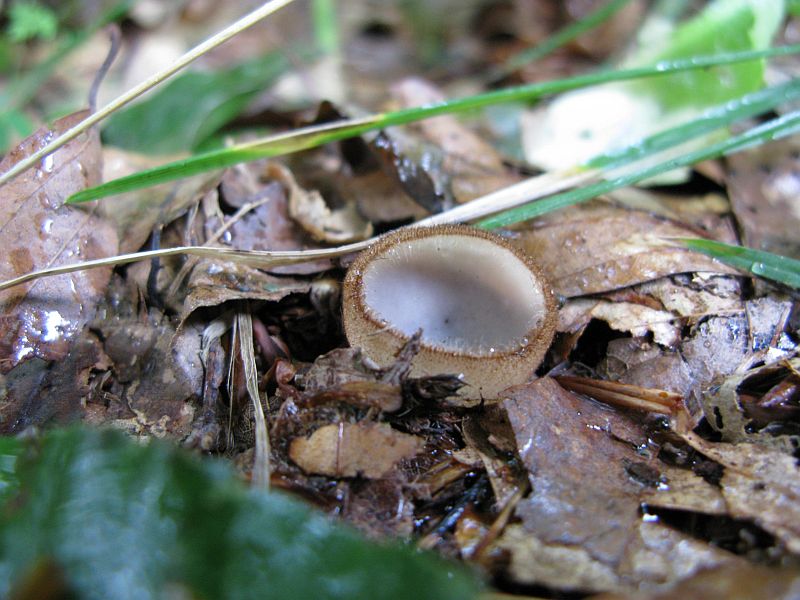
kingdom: Fungi
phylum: Ascomycota
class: Pezizomycetes
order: Pezizales
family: Pyronemataceae
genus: Humaria
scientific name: Humaria hemisphaerica
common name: halvkugleformet børstebæger
